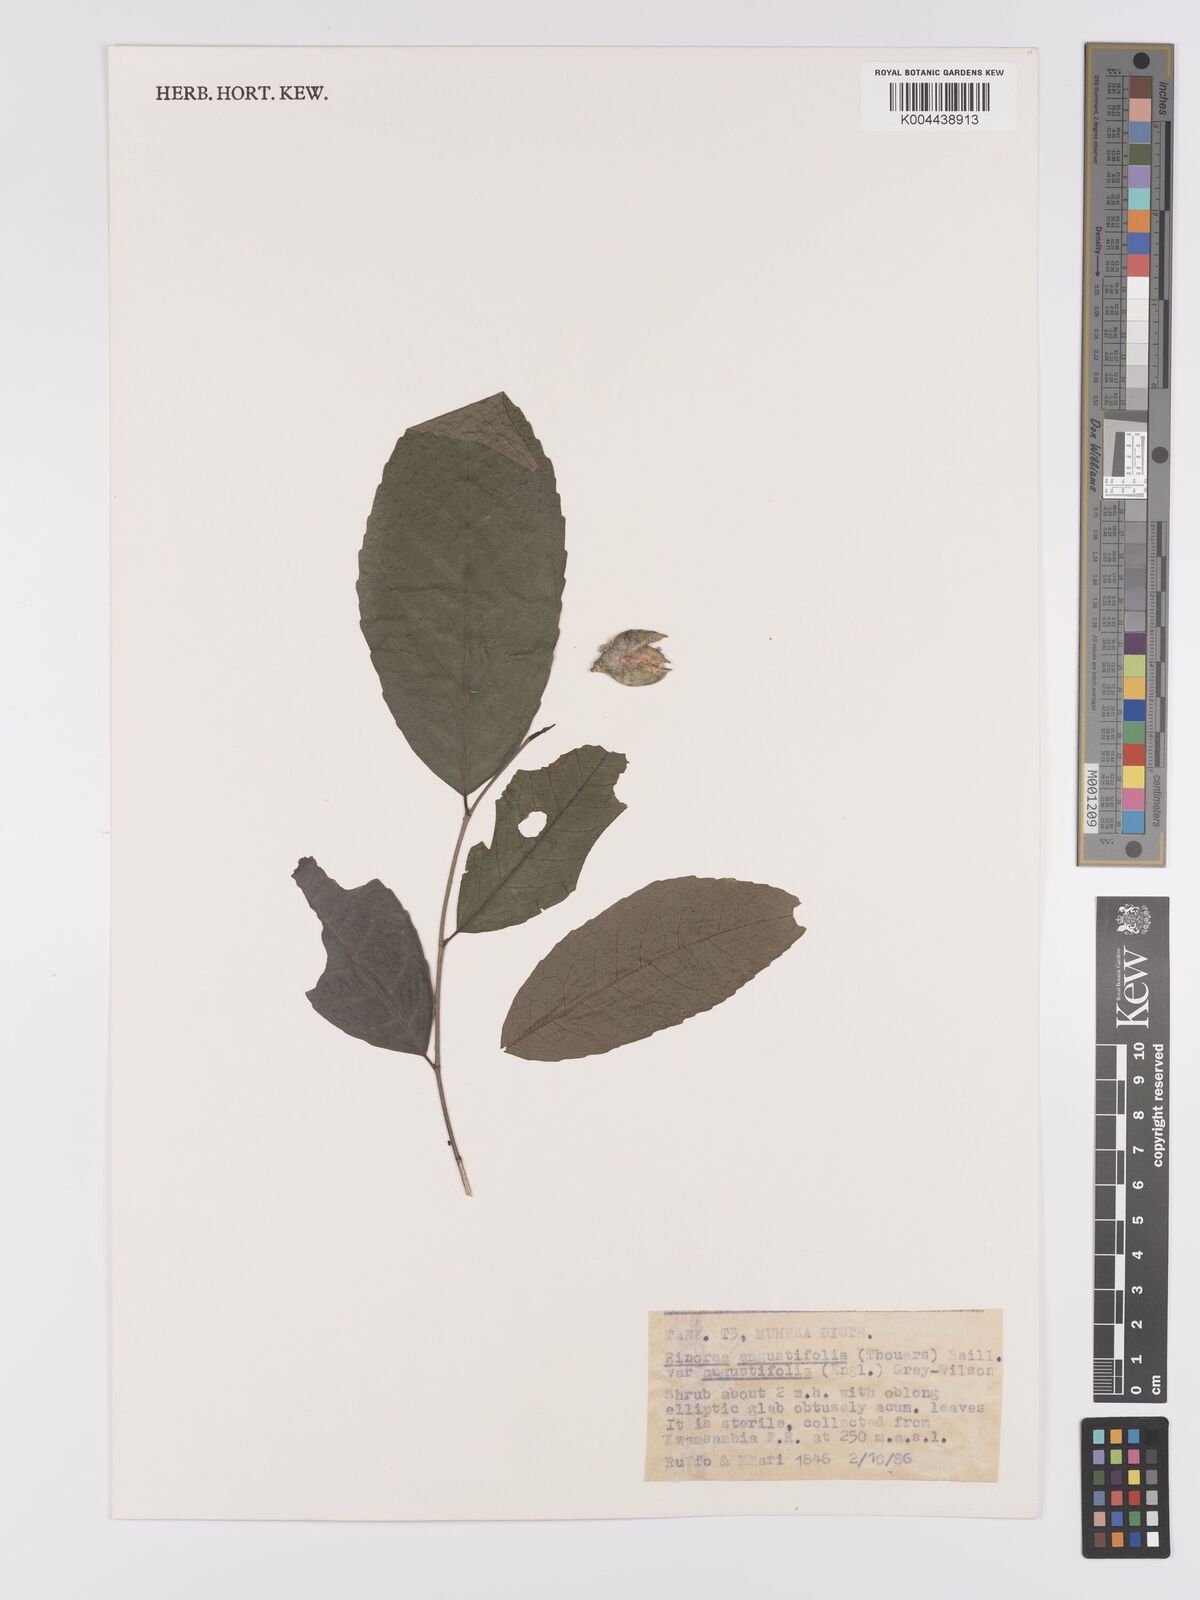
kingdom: Plantae
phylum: Tracheophyta
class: Magnoliopsida
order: Malpighiales
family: Violaceae
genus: Rinorea
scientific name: Rinorea angustifolia
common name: White violet-bush
